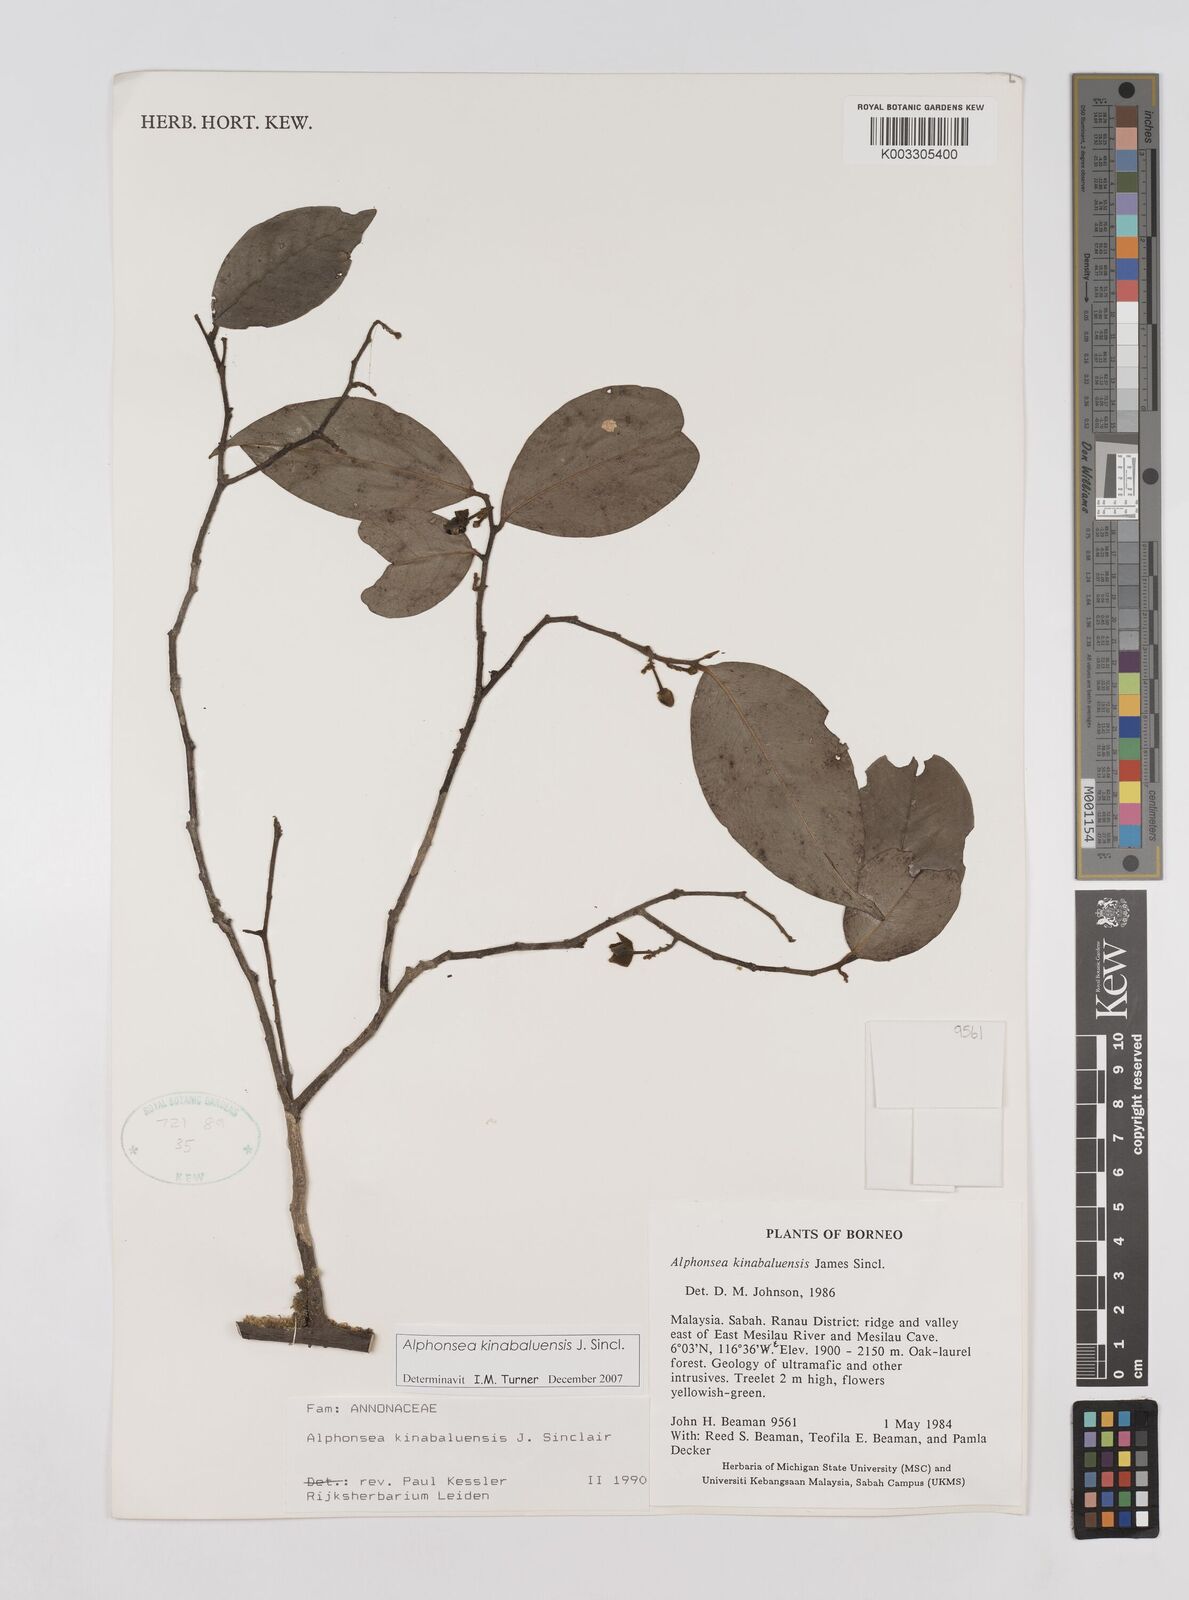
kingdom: Plantae
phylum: Tracheophyta
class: Magnoliopsida
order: Magnoliales
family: Annonaceae
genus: Alphonsea
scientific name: Alphonsea kinabaluensis
